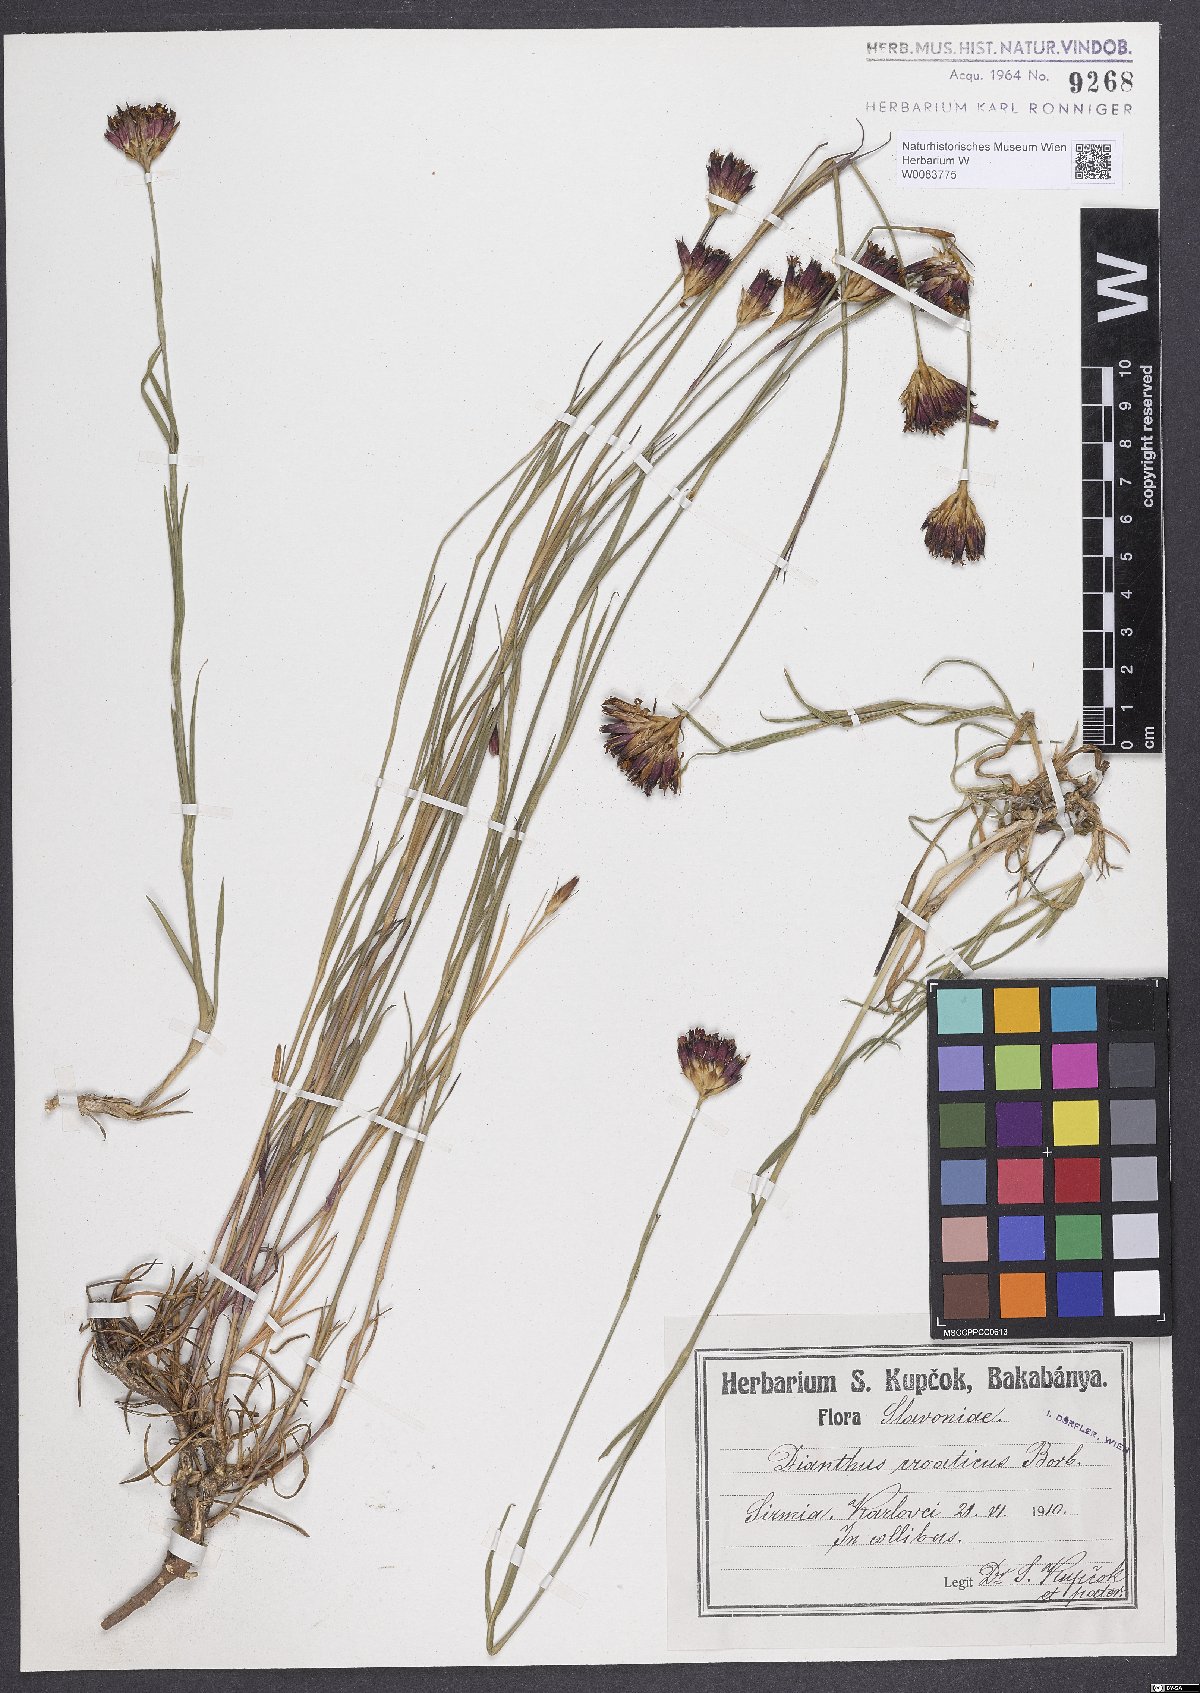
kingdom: Plantae
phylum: Tracheophyta
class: Magnoliopsida
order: Caryophyllales
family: Caryophyllaceae
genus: Dianthus
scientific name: Dianthus giganteus
